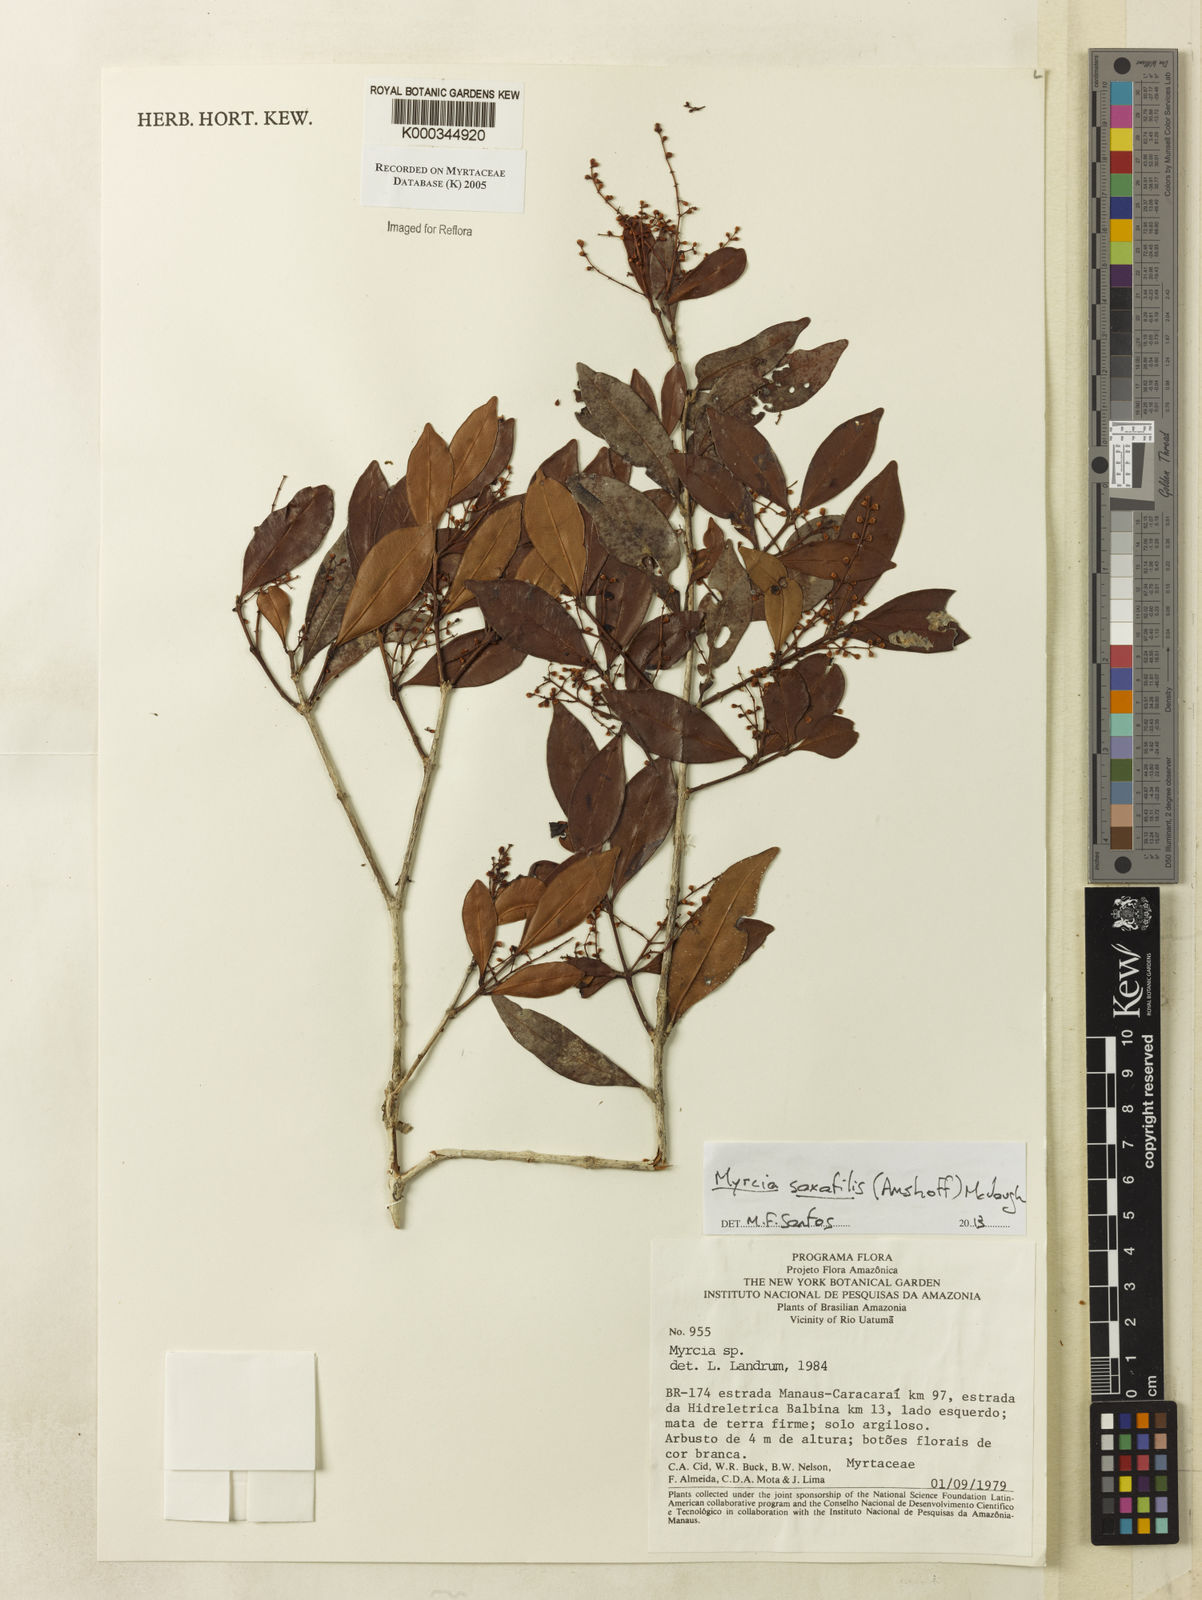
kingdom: Plantae
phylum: Tracheophyta
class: Magnoliopsida
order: Myrtales
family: Myrtaceae
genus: Myrcia
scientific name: Myrcia
